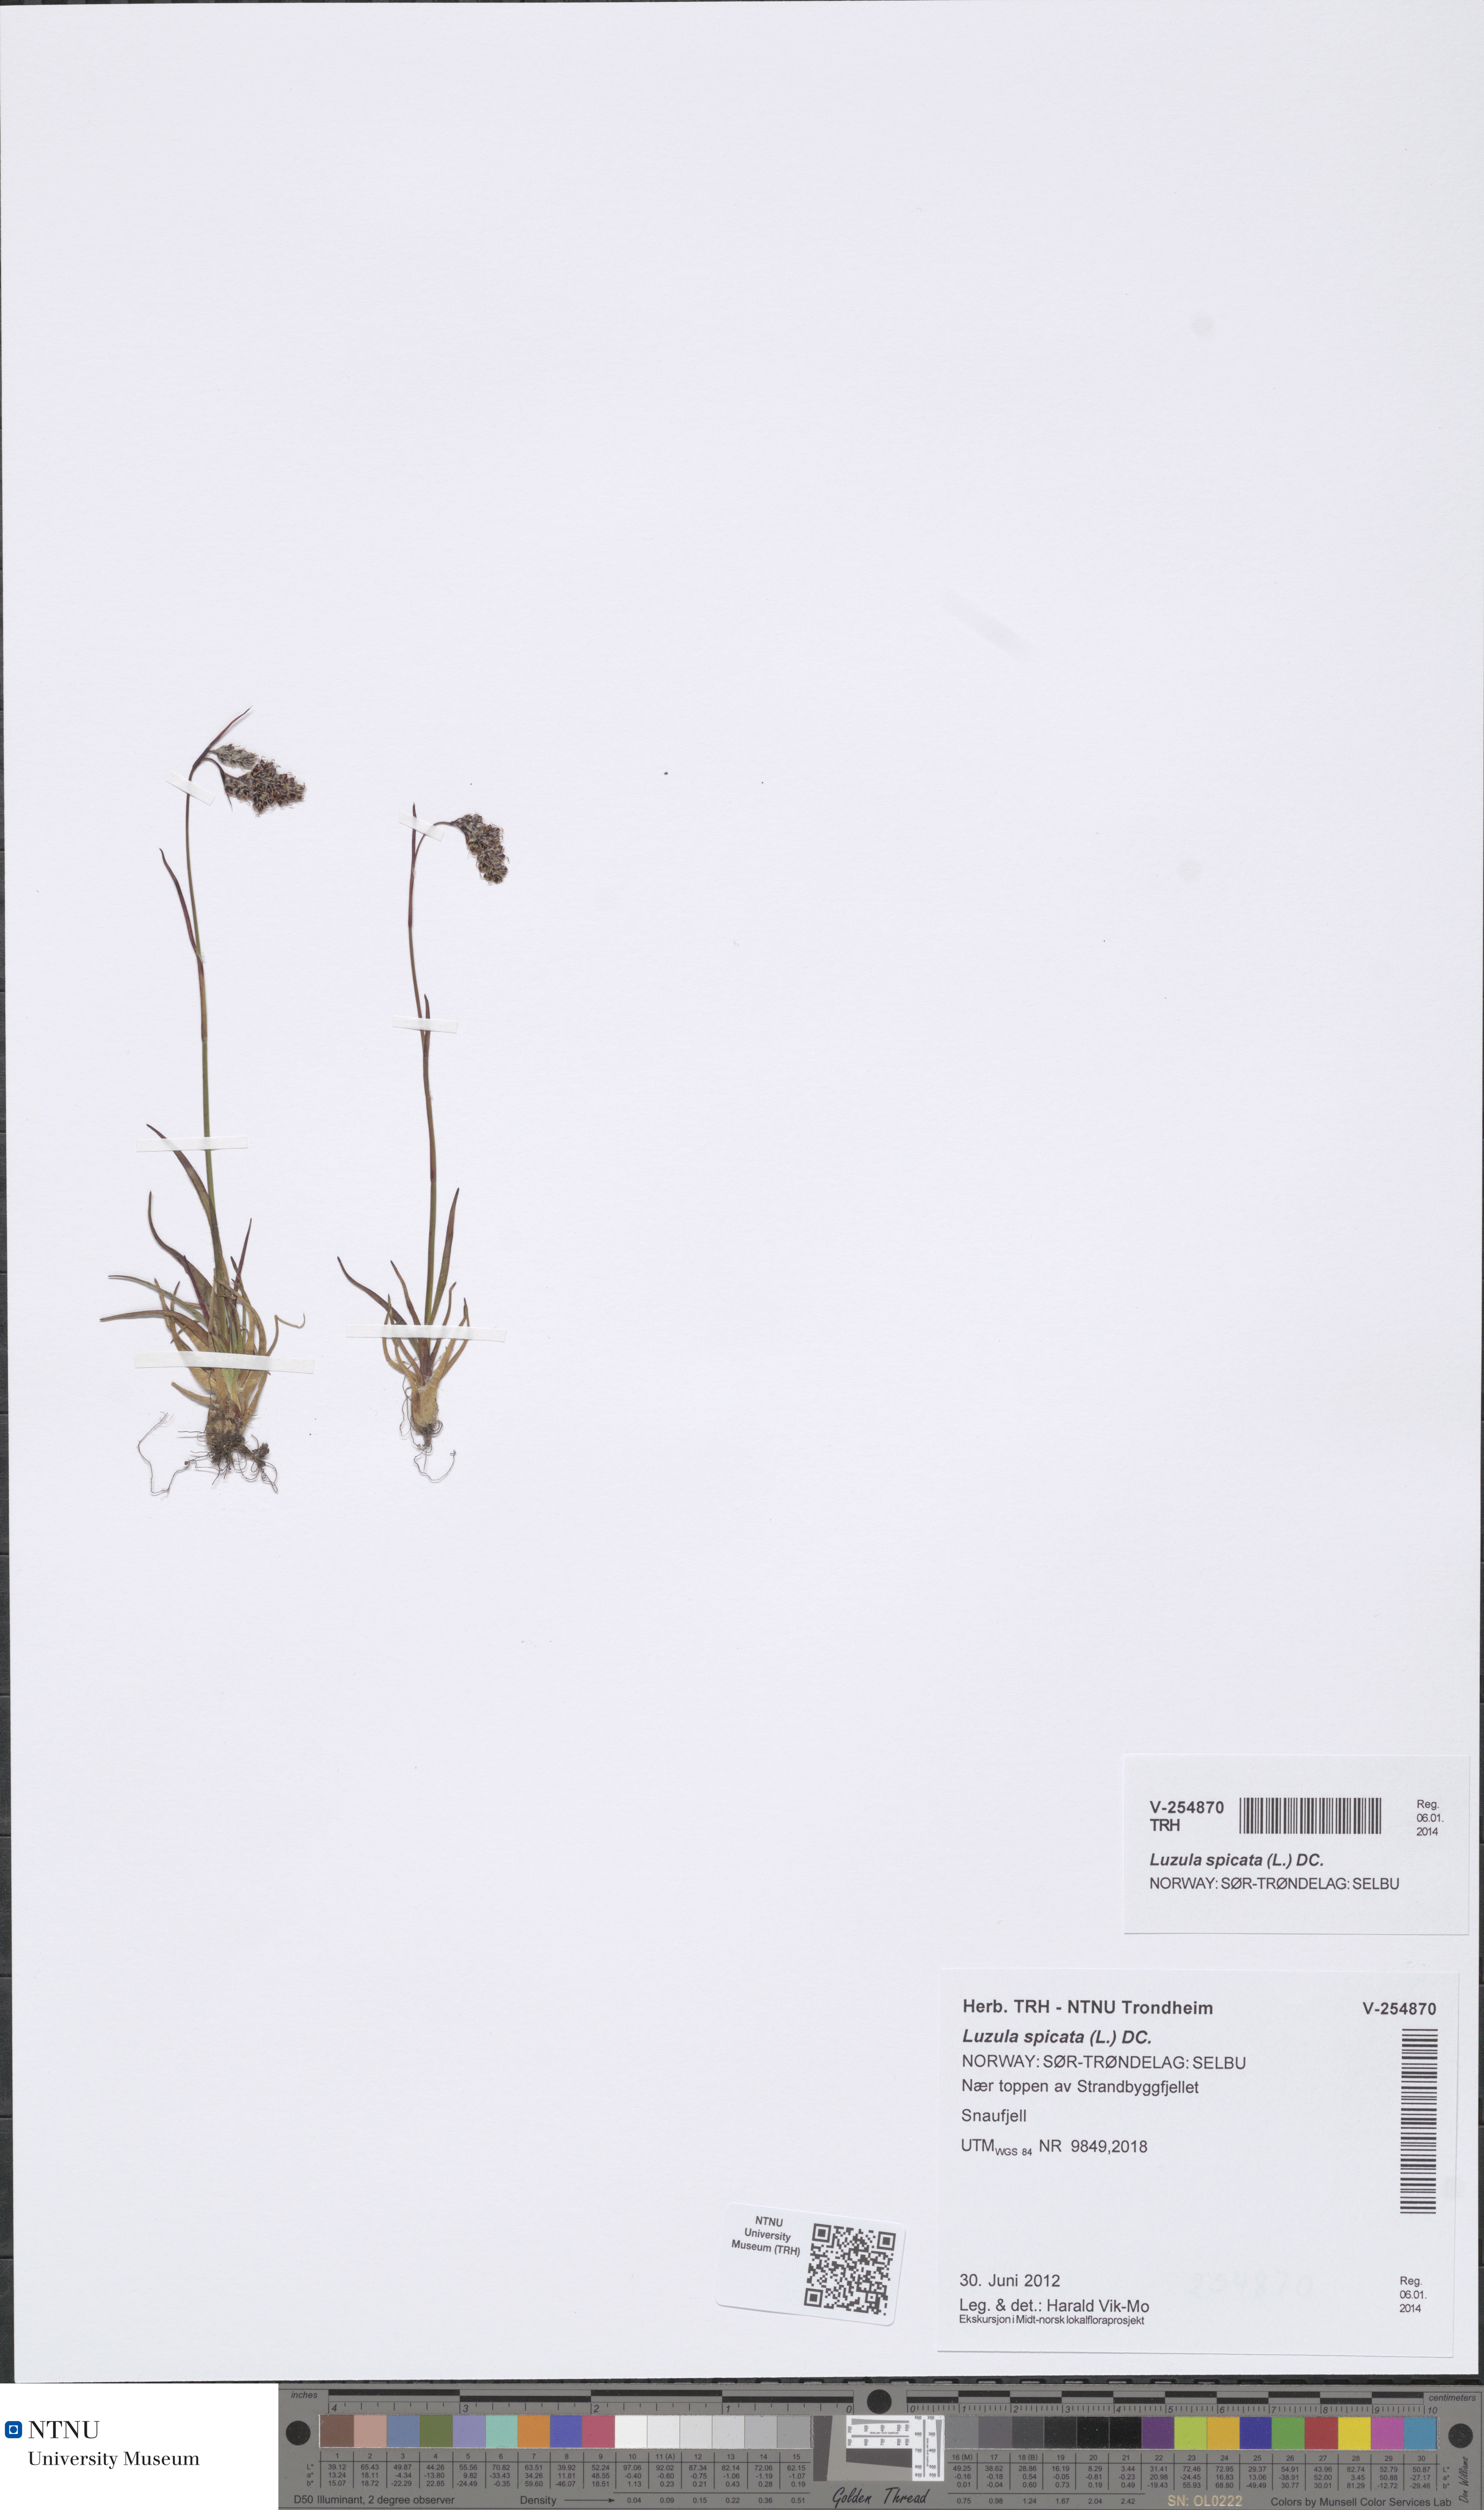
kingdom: Plantae
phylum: Tracheophyta
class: Liliopsida
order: Poales
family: Juncaceae
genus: Luzula
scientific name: Luzula spicata
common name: Spiked wood-rush
